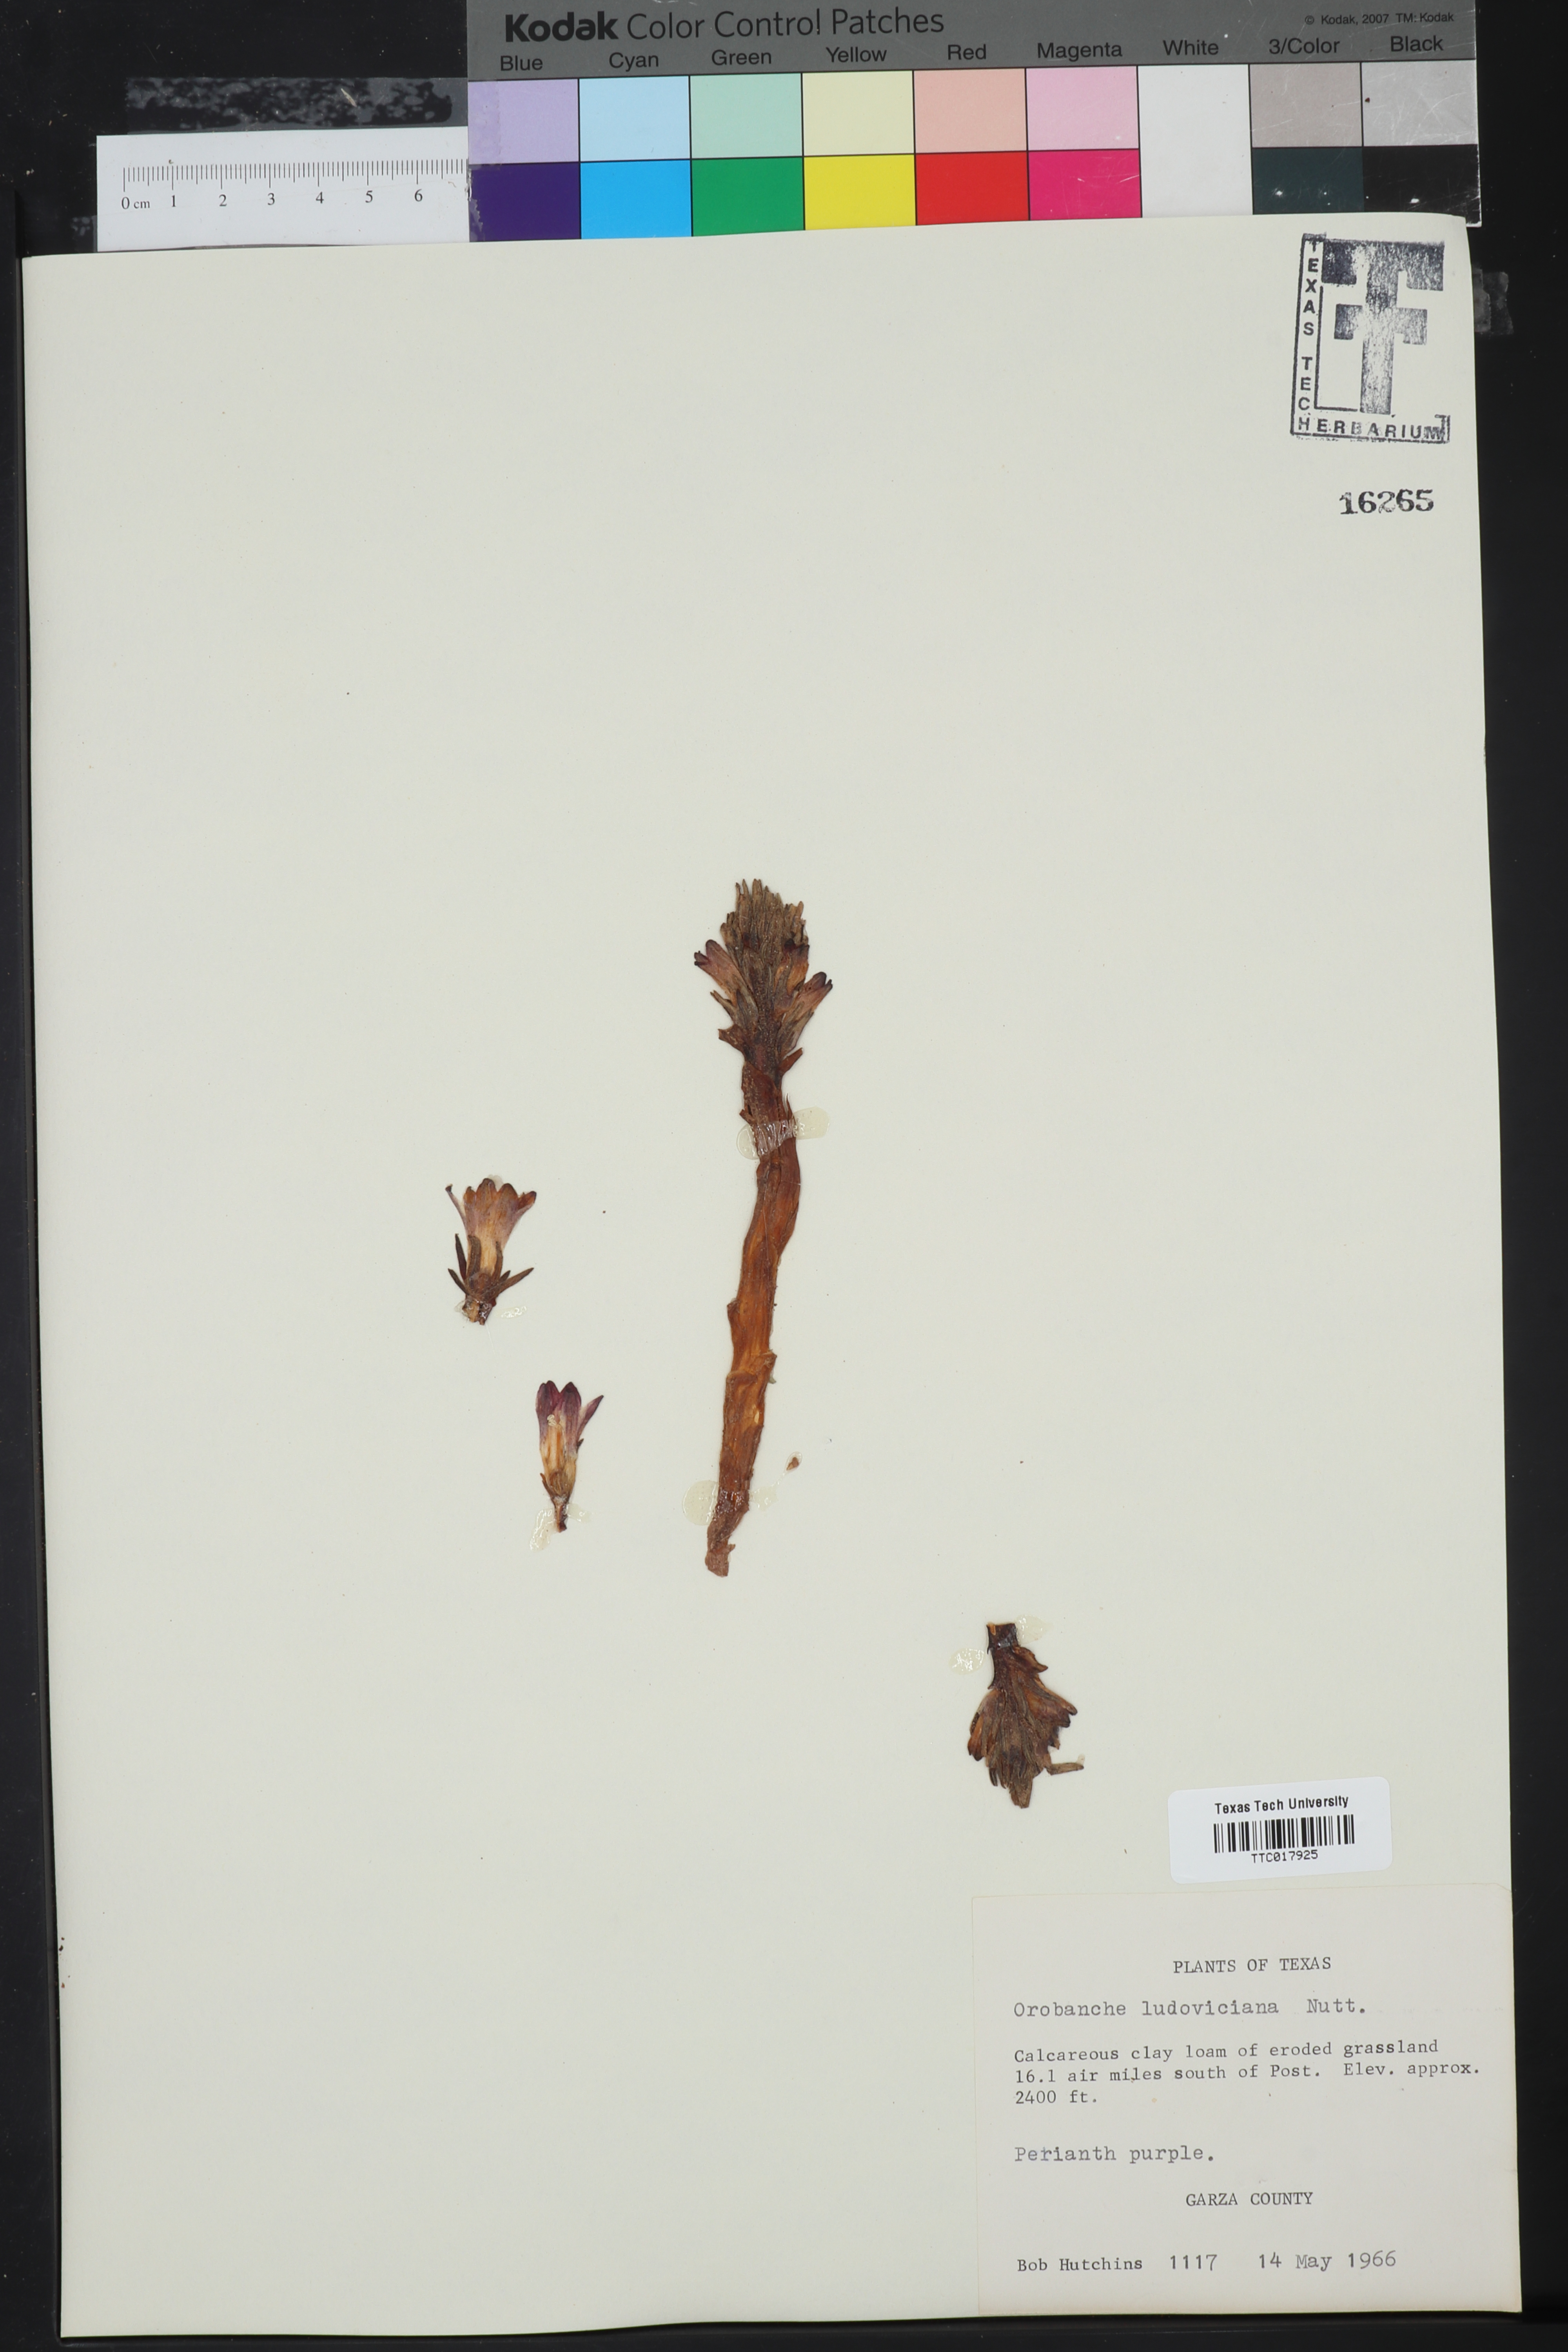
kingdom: Plantae
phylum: Tracheophyta
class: Magnoliopsida
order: Lamiales
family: Orobanchaceae
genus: Aphyllon
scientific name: Aphyllon ludovicianum
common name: Louisiana broomrape
